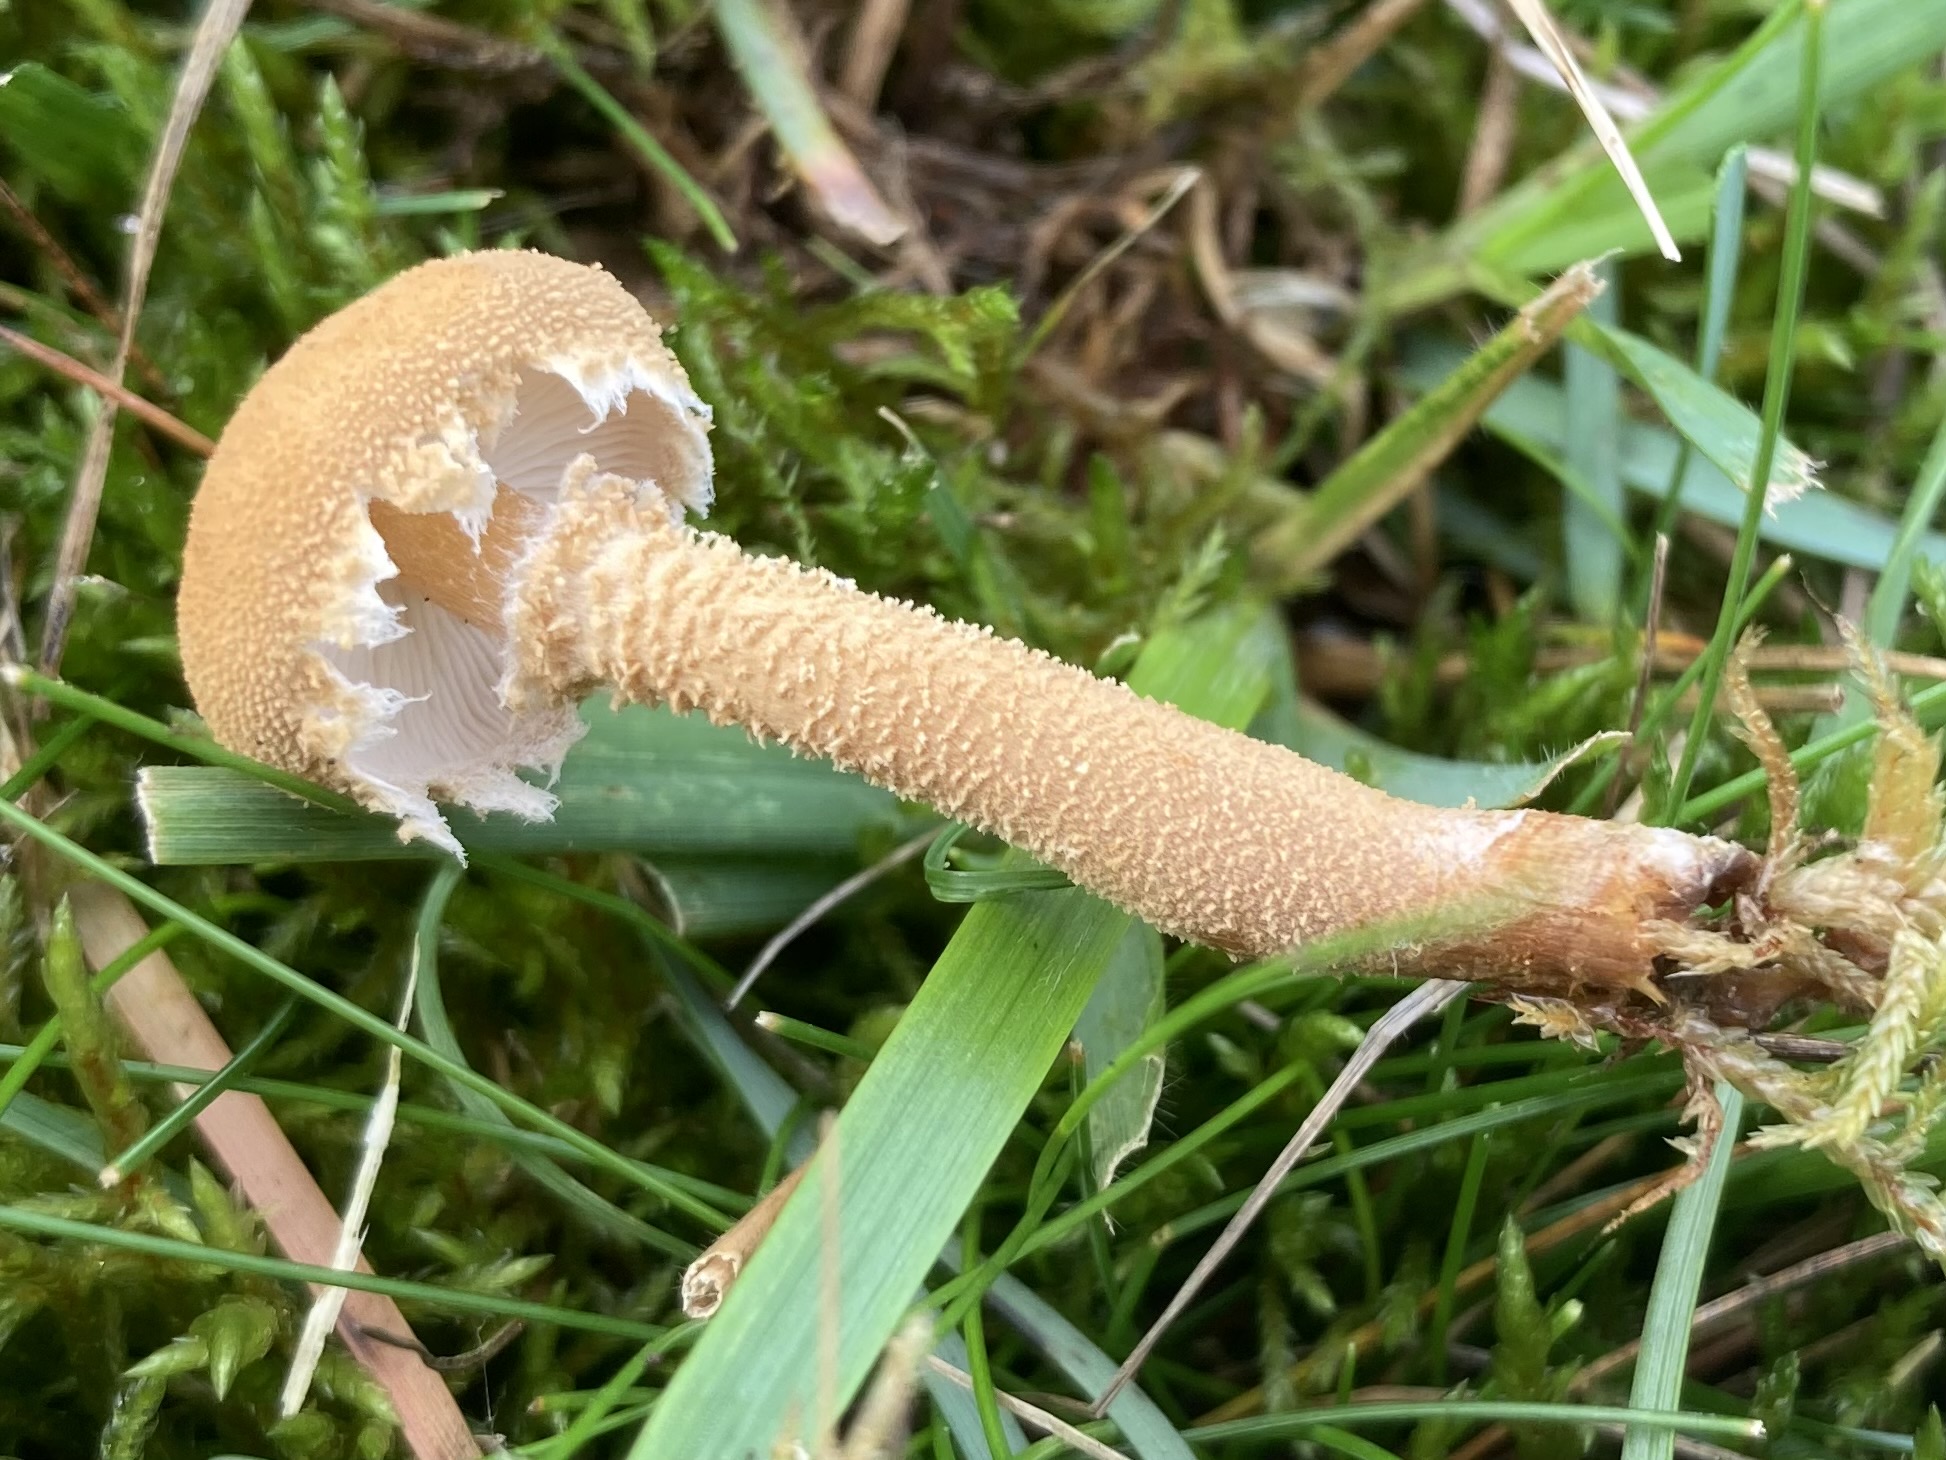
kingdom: Fungi
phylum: Basidiomycota
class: Agaricomycetes
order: Agaricales
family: Tricholomataceae
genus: Cystoderma
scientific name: Cystoderma amianthinum
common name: okkergul grynhat
